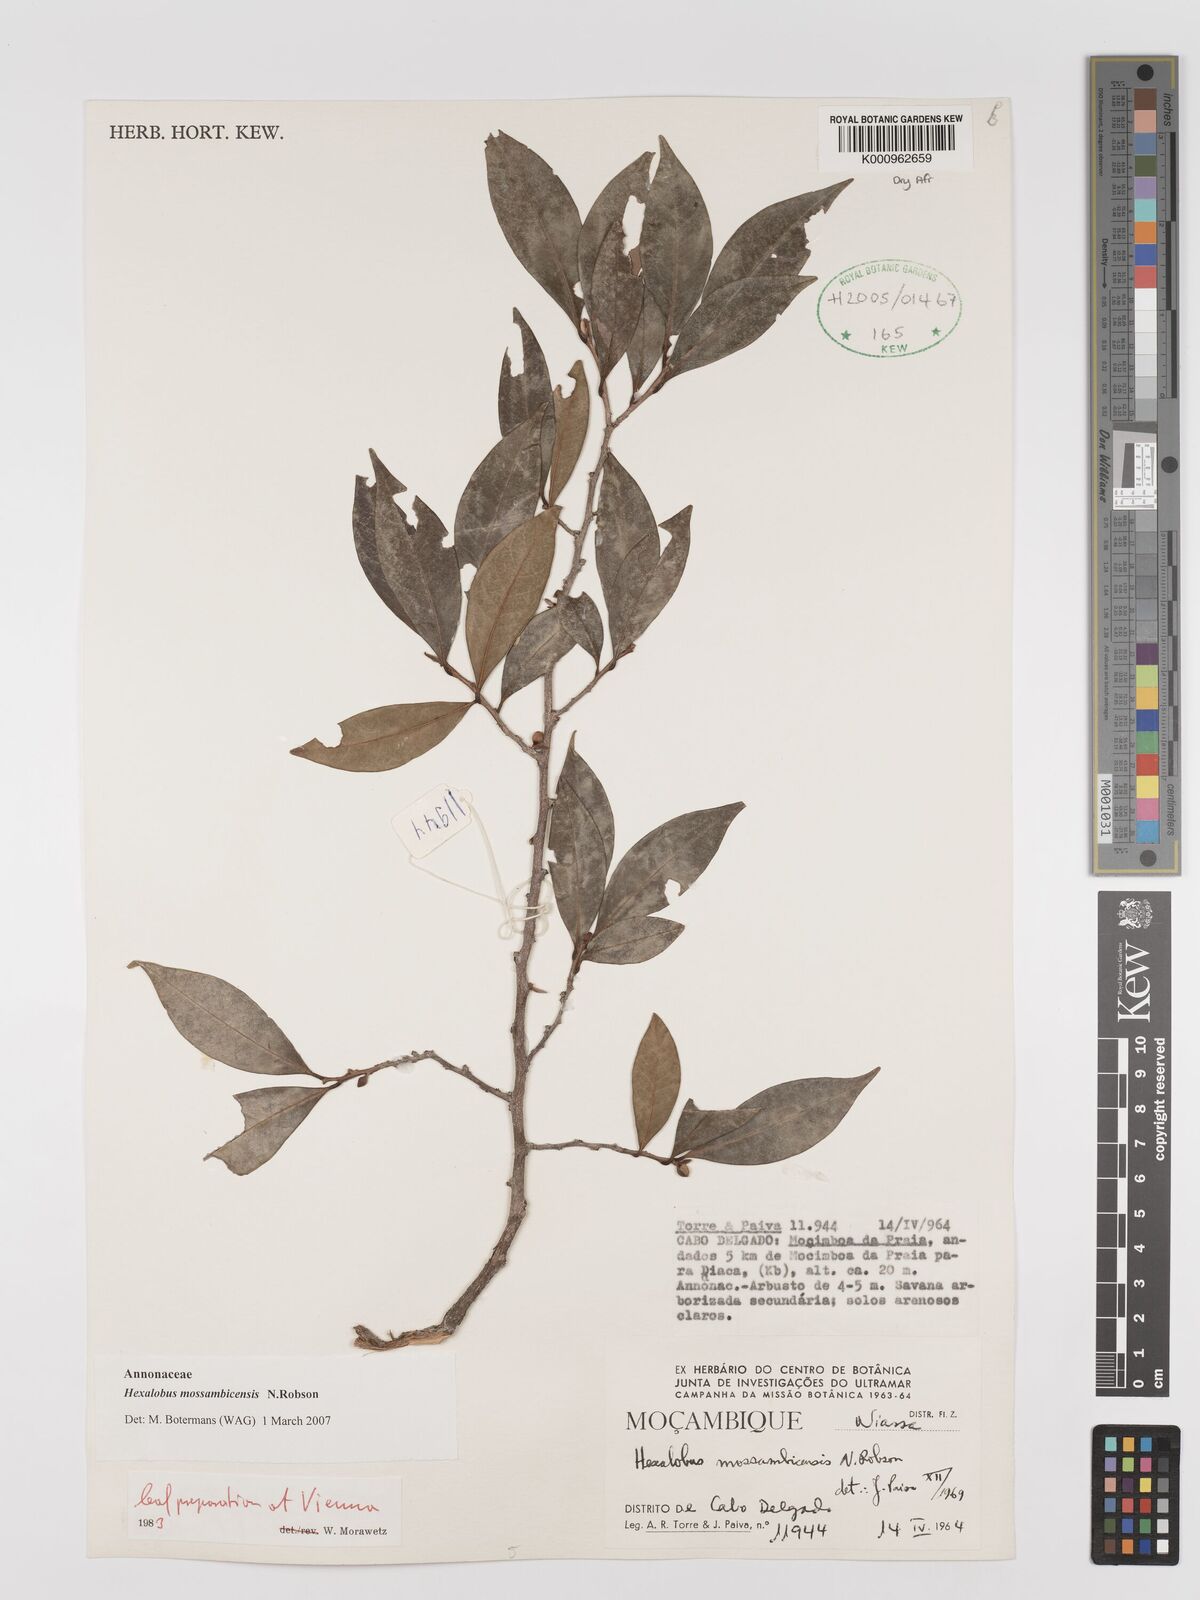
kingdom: Plantae
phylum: Tracheophyta
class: Magnoliopsida
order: Magnoliales
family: Annonaceae
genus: Hexalobus
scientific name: Hexalobus mossambicensis
